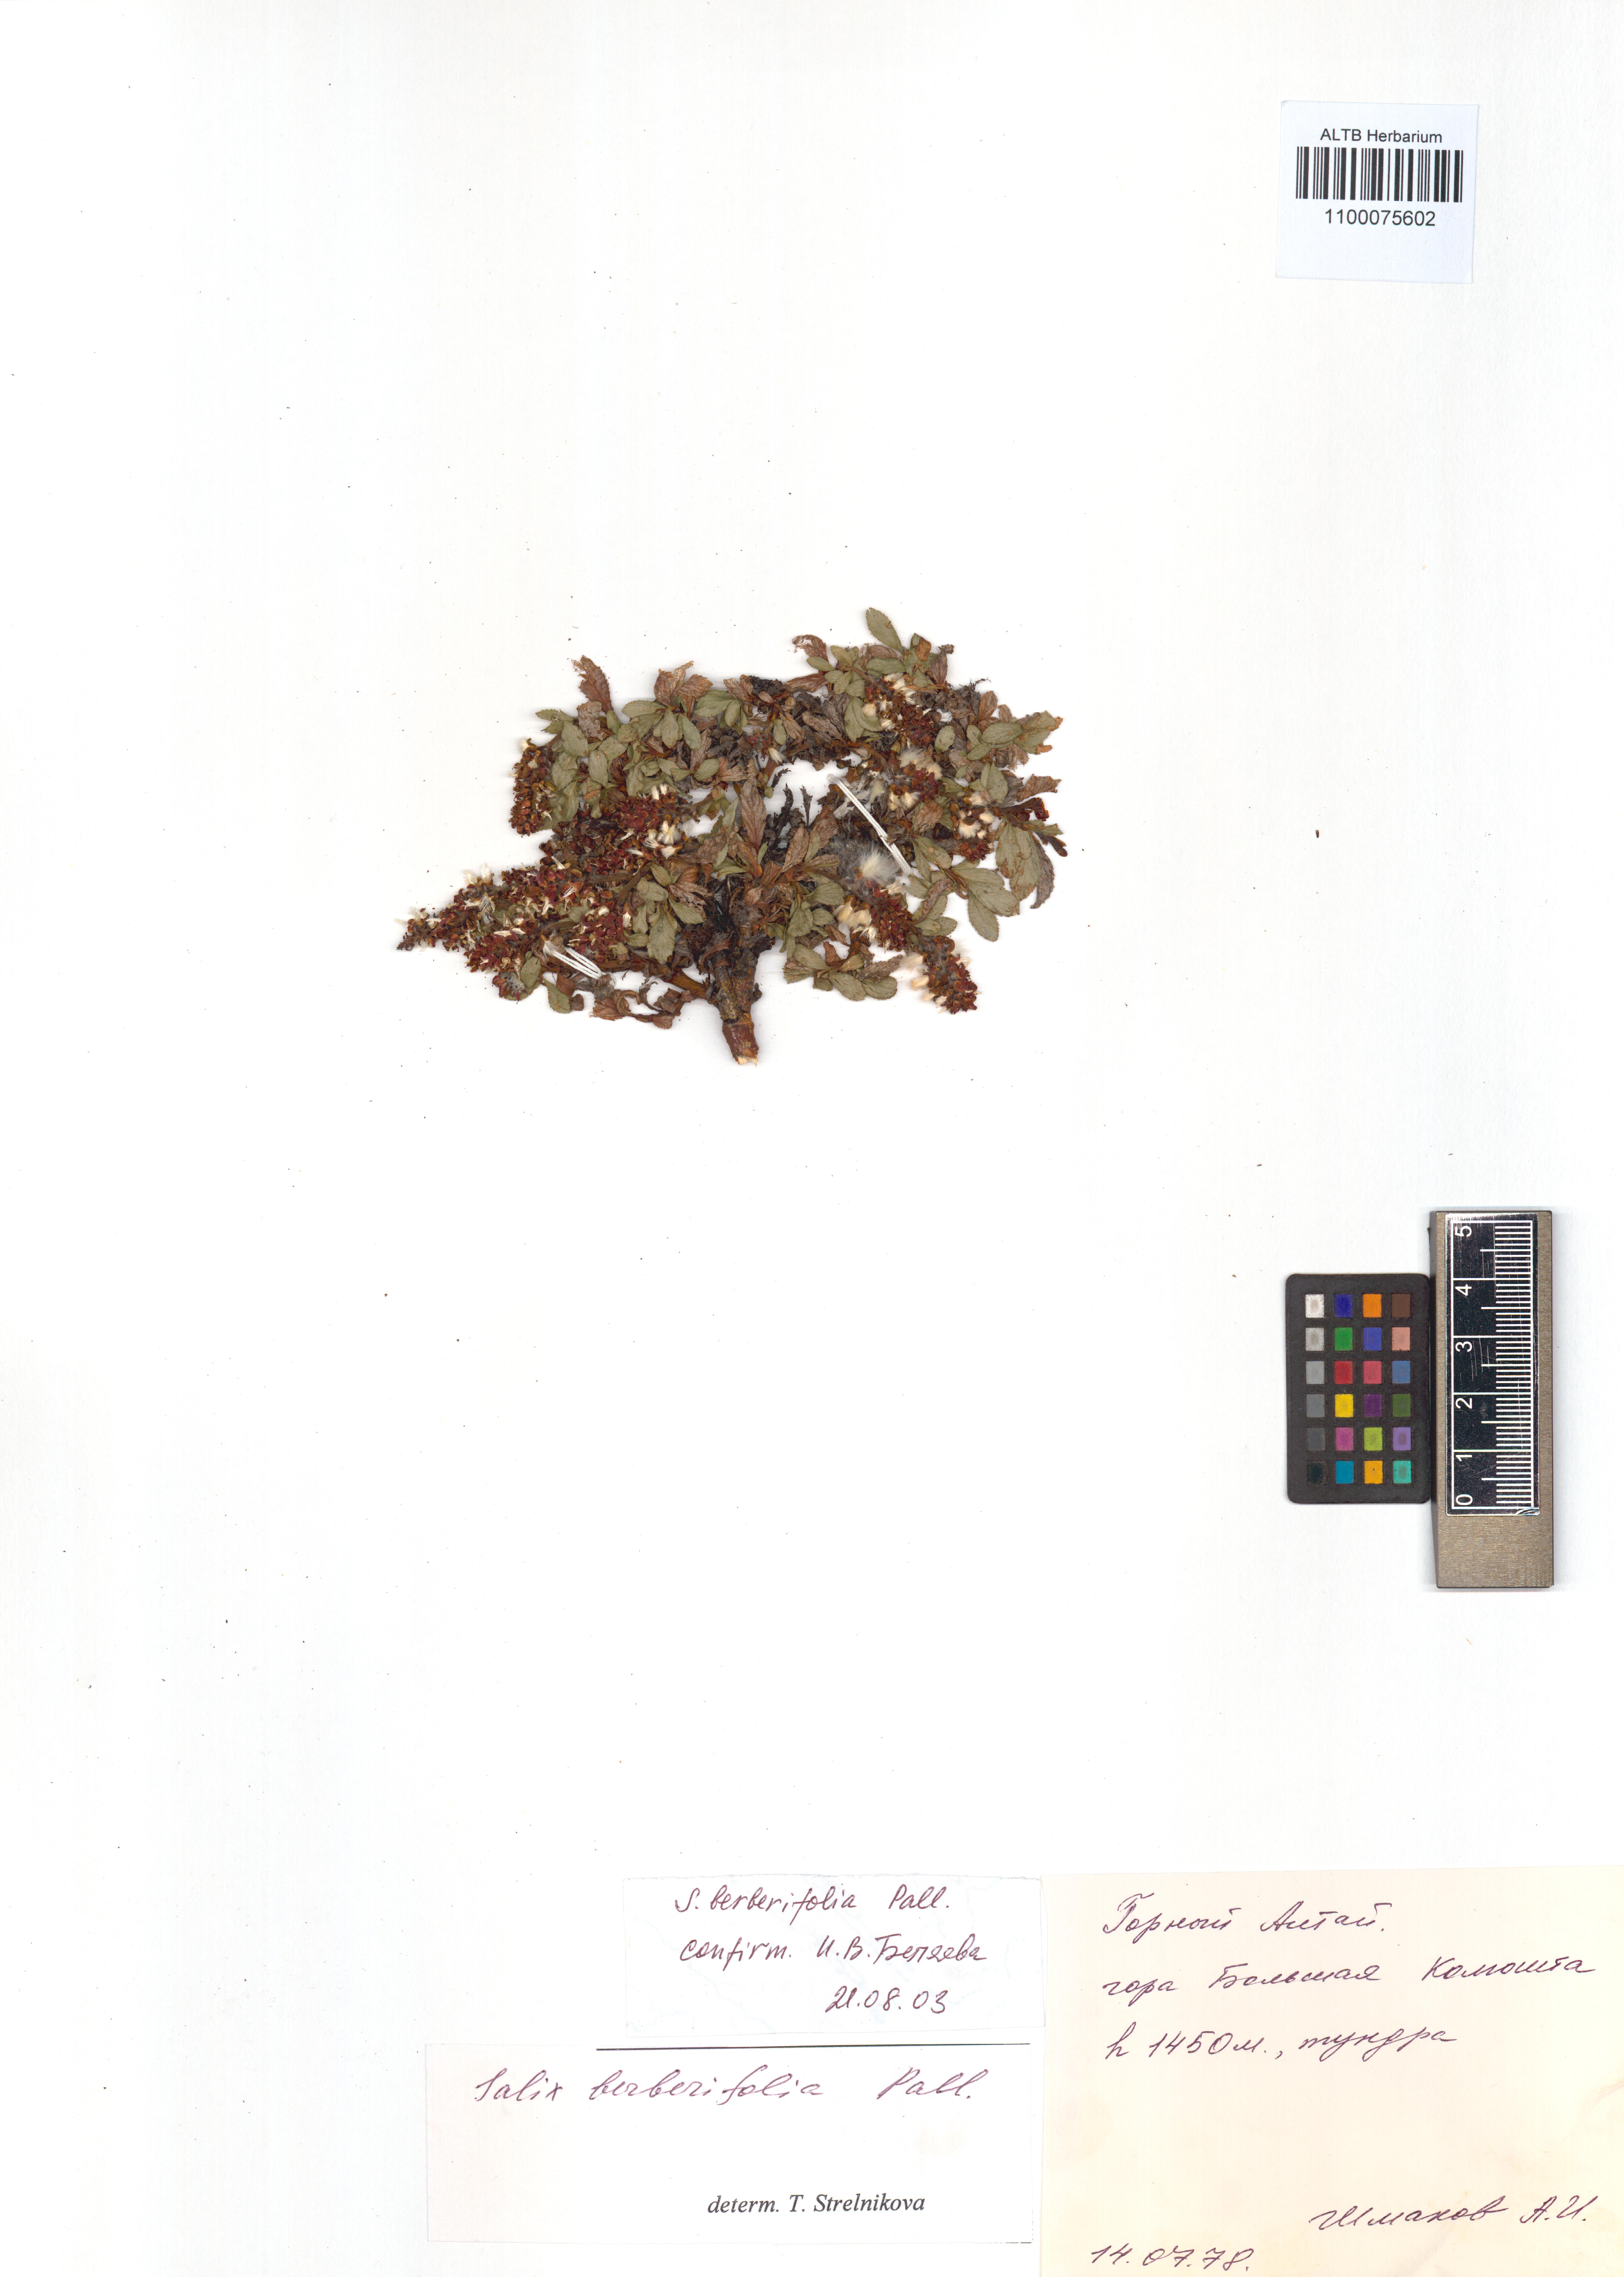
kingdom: Plantae
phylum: Tracheophyta
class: Magnoliopsida
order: Malpighiales
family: Salicaceae
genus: Salix
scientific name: Salix berberifolia
